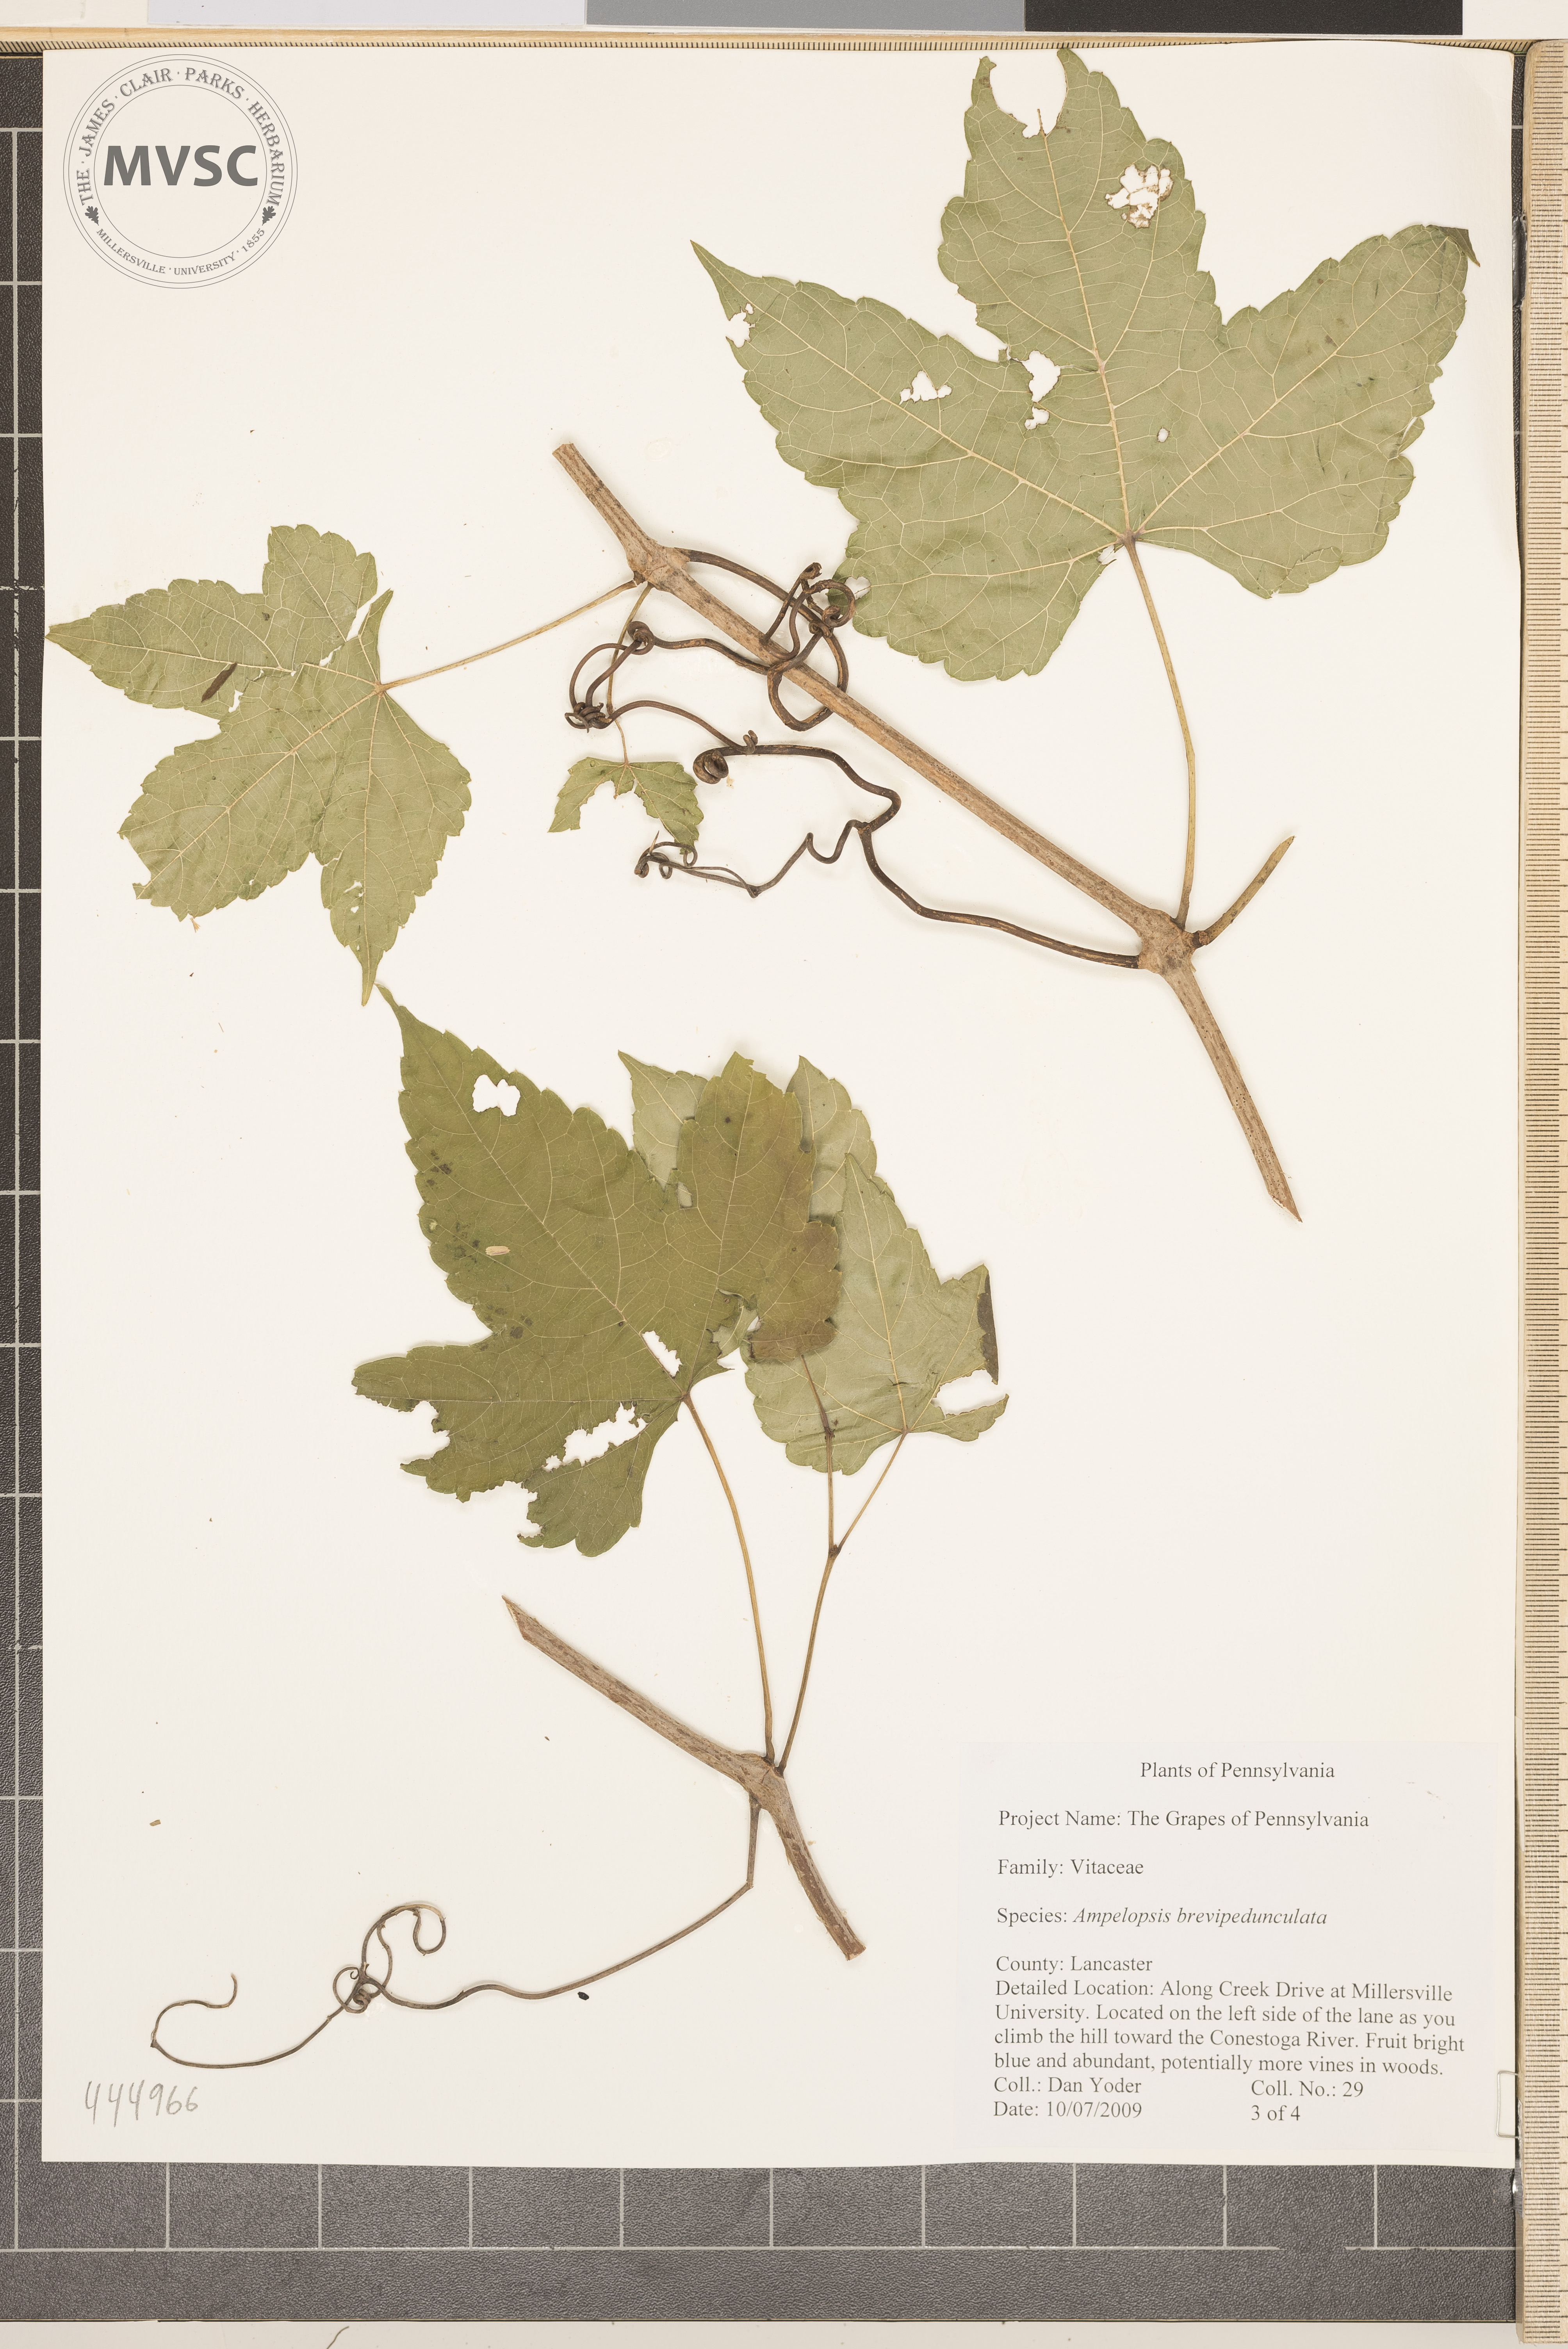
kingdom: Plantae
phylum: Tracheophyta
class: Magnoliopsida
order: Vitales
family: Vitaceae
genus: Ampelopsis
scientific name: Ampelopsis brevipedunculata
